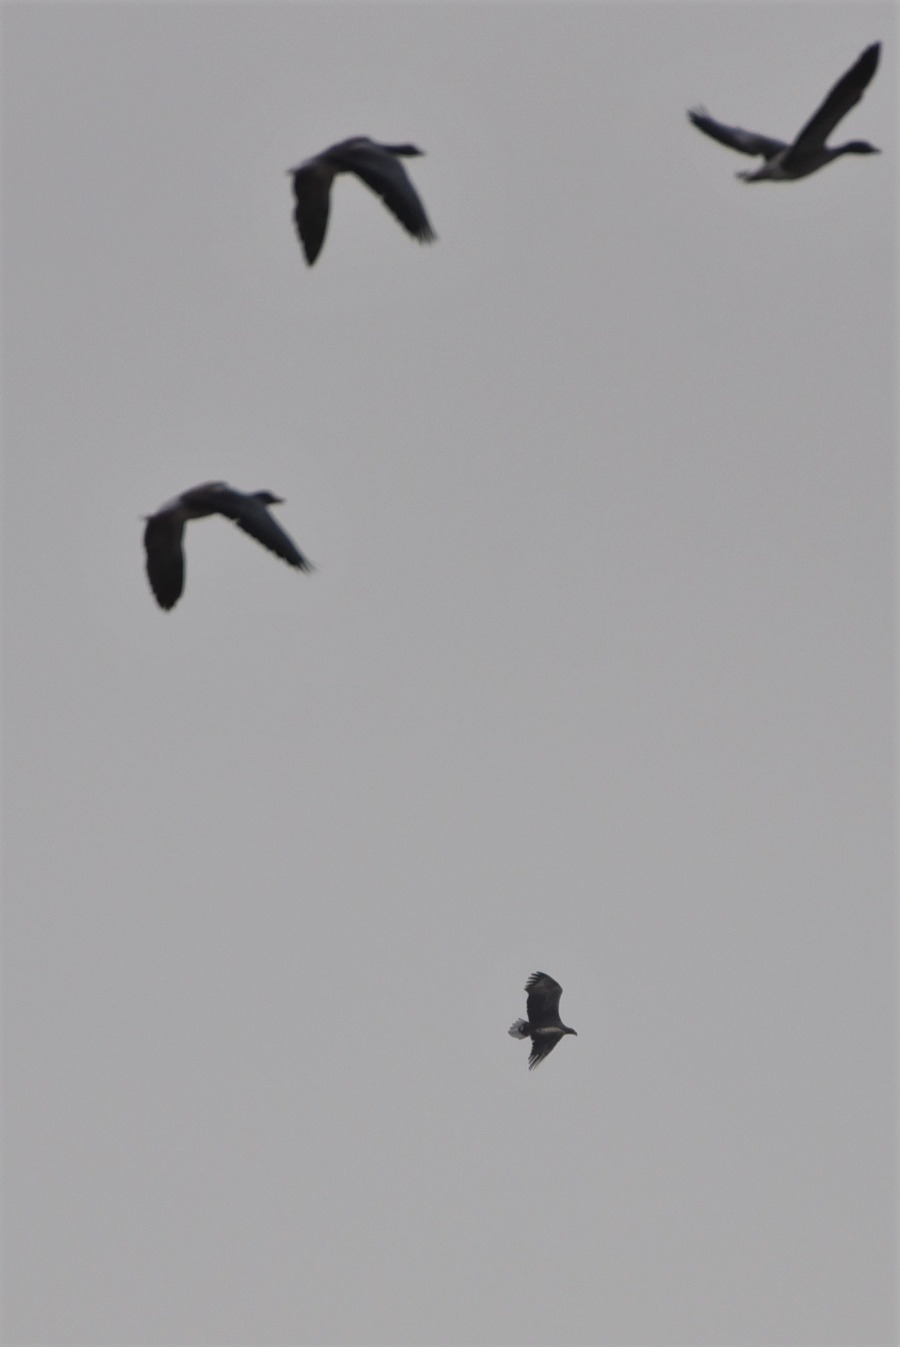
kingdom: Animalia
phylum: Chordata
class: Aves
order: Accipitriformes
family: Accipitridae
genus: Haliaeetus
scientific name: Haliaeetus albicilla
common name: Havørn
